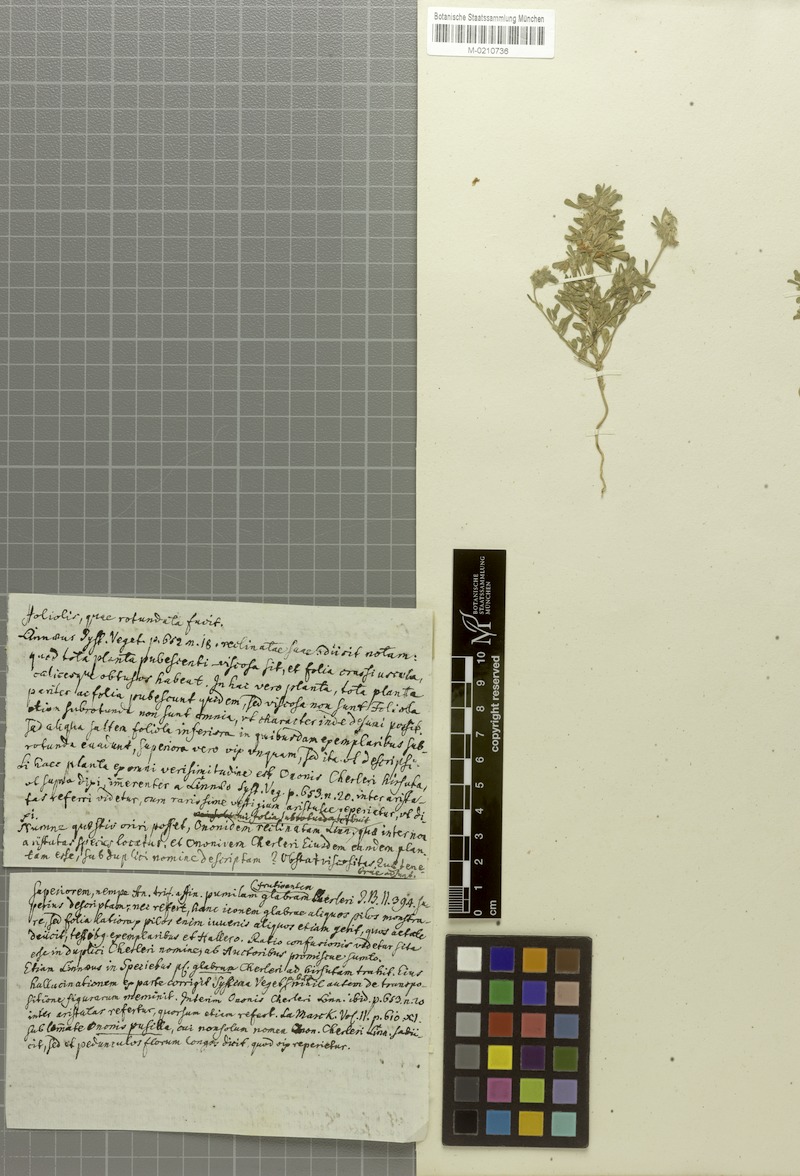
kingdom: Plantae
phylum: Tracheophyta
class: Magnoliopsida
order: Fabales
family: Fabaceae
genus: Ononis
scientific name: Ononis reclinata
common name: Small restharrow
